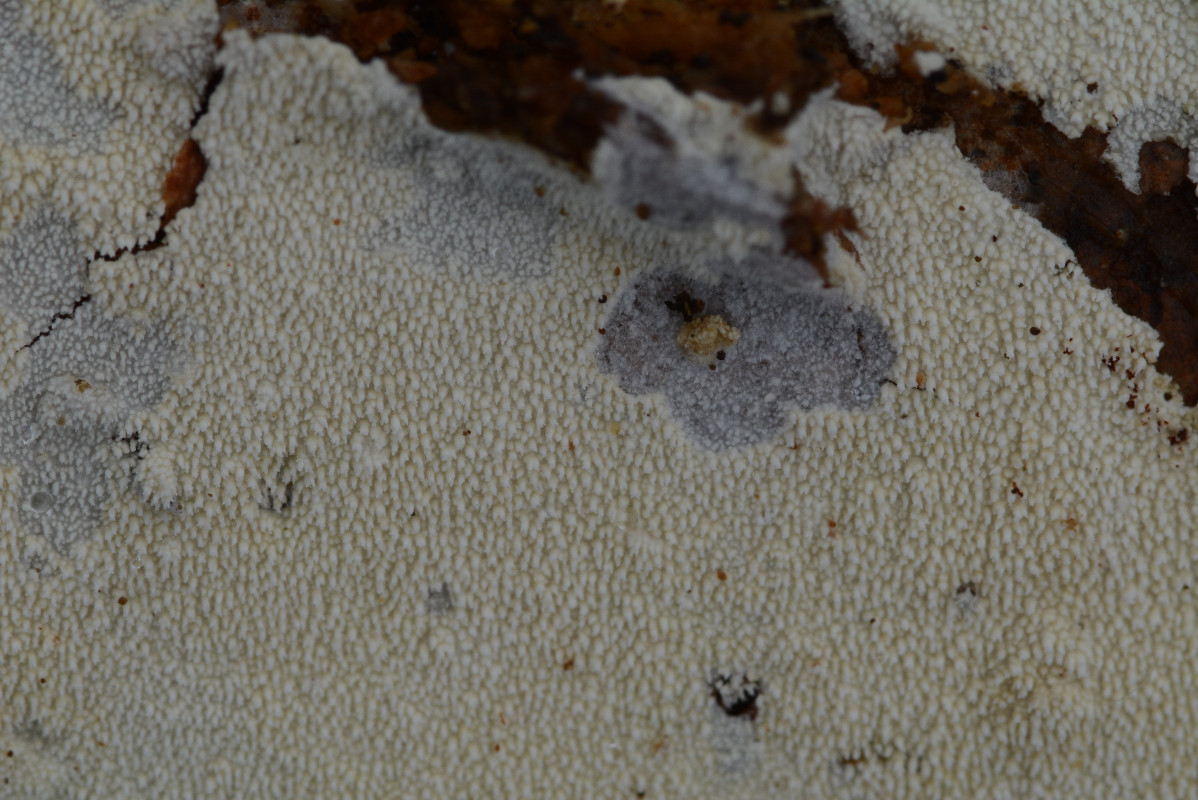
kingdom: Fungi
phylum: Basidiomycota
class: Agaricomycetes
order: Hymenochaetales
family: Schizoporaceae
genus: Xylodon
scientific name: Xylodon nesporii
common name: fintandet tandsvamp
